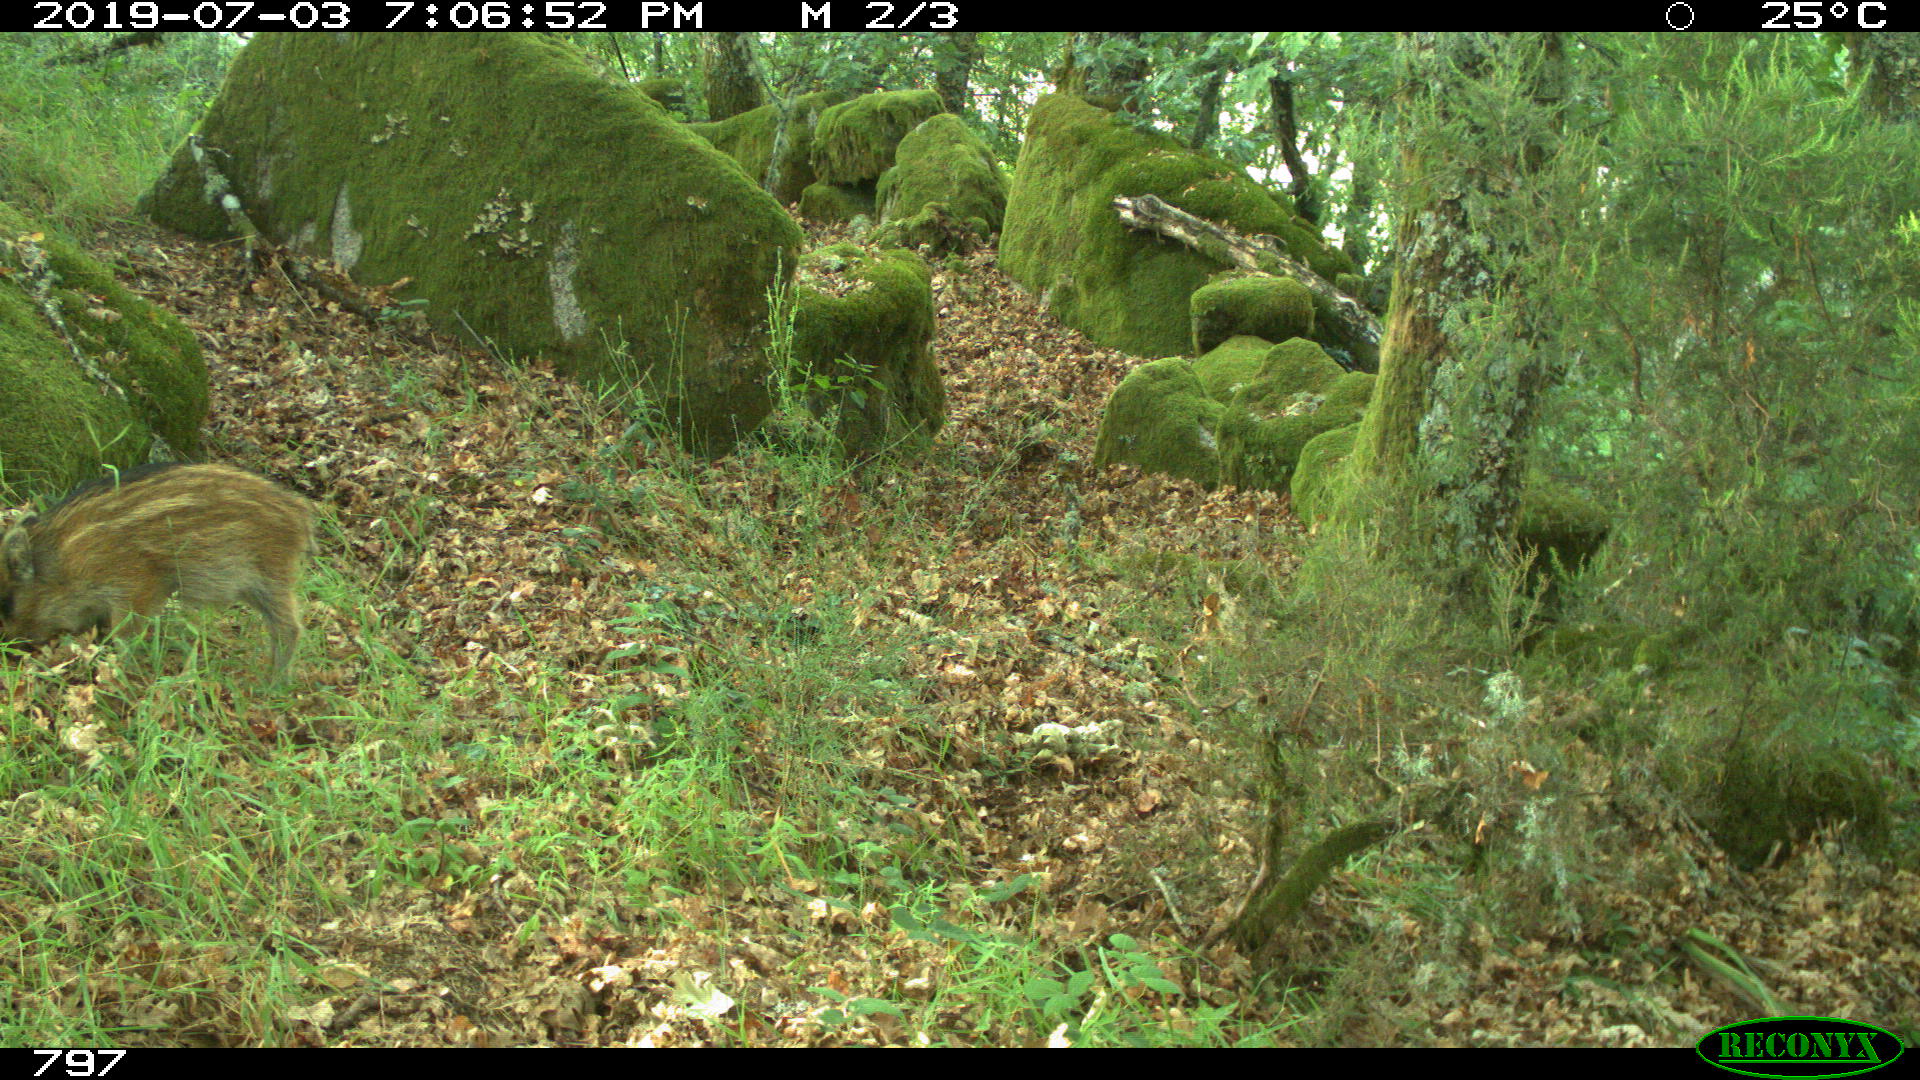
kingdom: Animalia
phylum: Chordata
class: Mammalia
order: Artiodactyla
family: Suidae
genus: Sus
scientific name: Sus scrofa
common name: Wild boar
